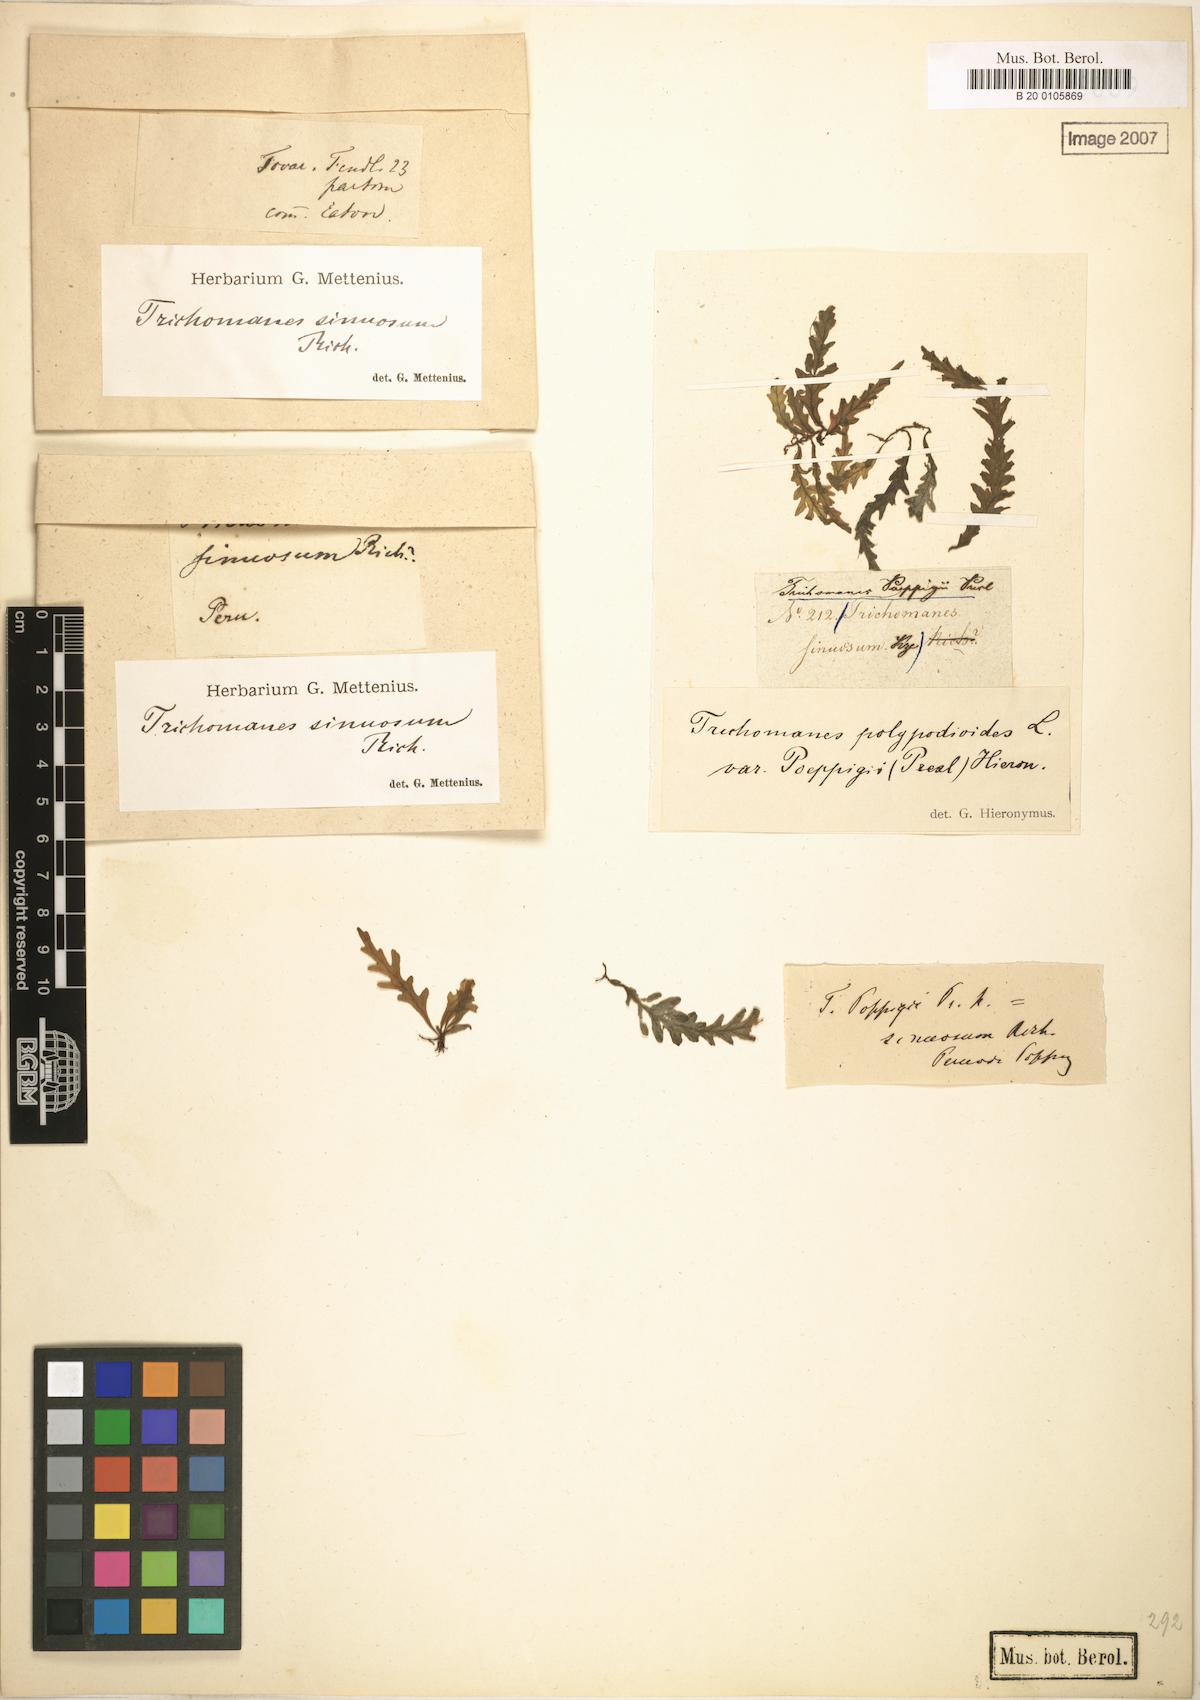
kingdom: Plantae
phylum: Tracheophyta
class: Polypodiopsida
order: Hymenophyllales
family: Hymenophyllaceae
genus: Trichomanes
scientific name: Trichomanes poeppigii
